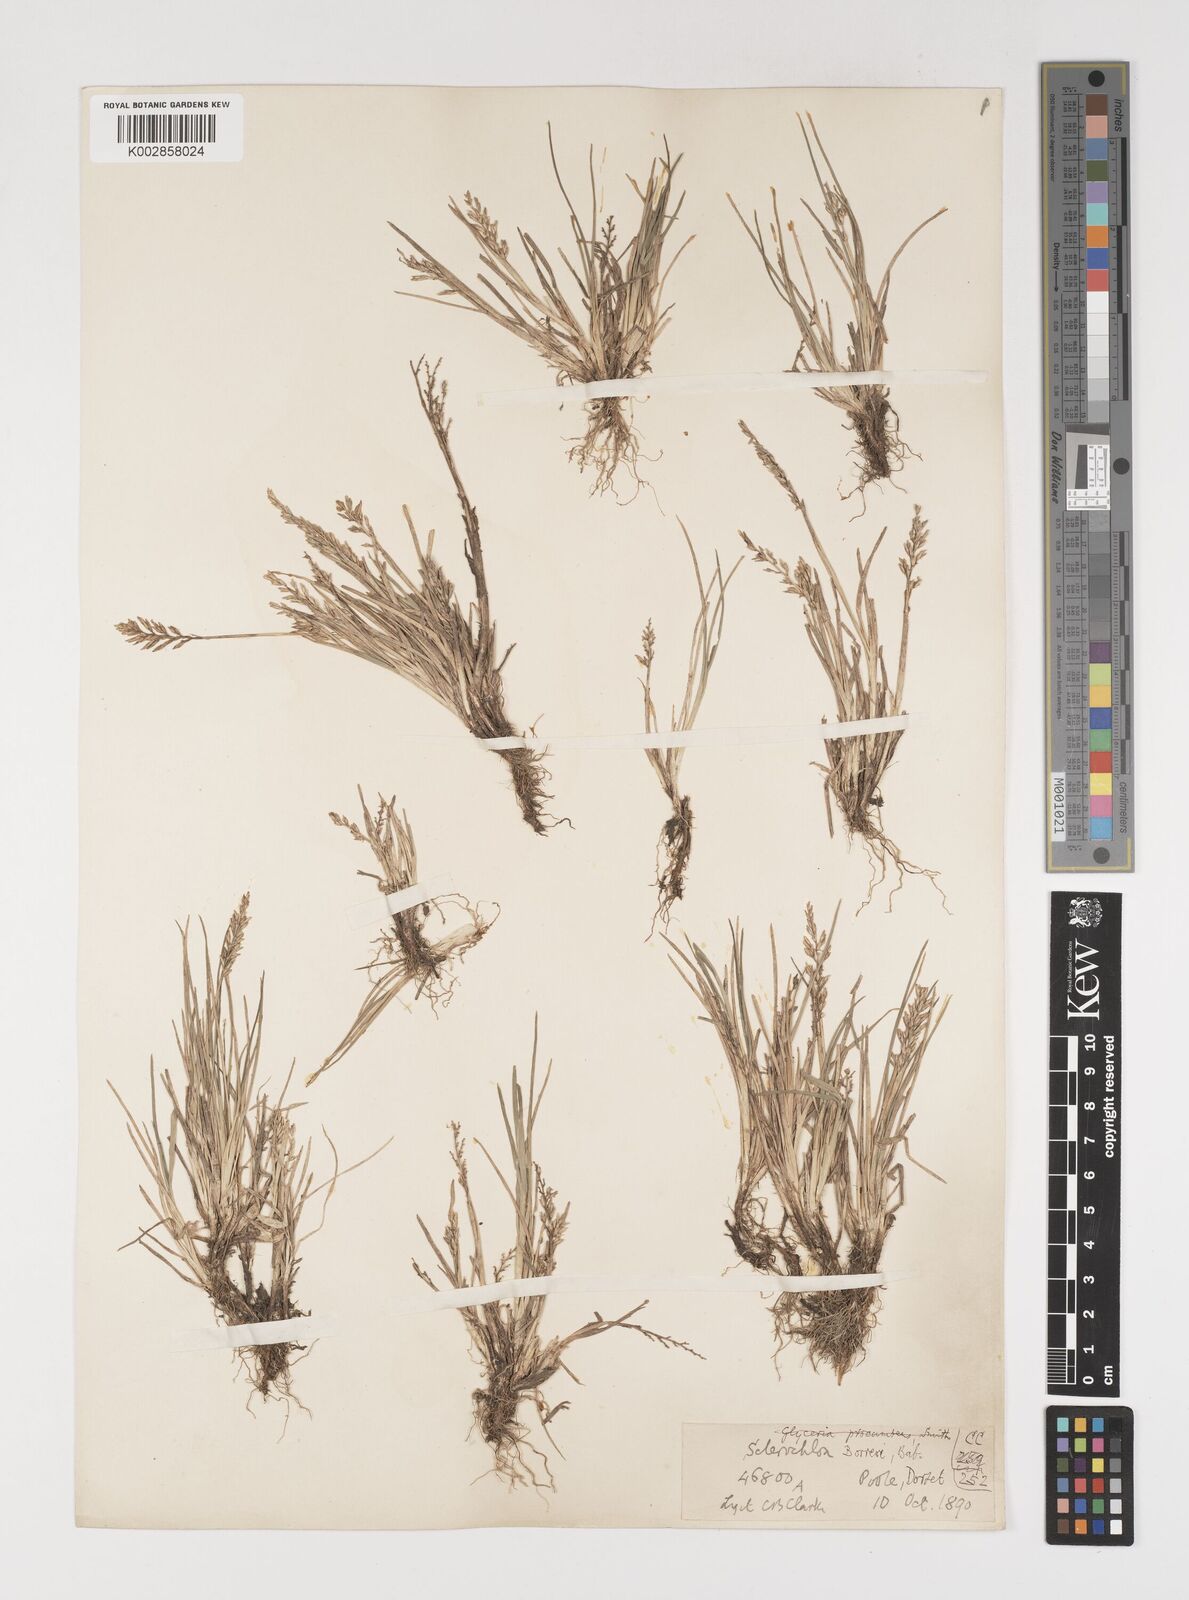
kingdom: Plantae
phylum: Tracheophyta
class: Liliopsida
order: Poales
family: Poaceae
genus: Puccinellia
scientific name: Puccinellia rupestris
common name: Stiff saltmarsh-grass
